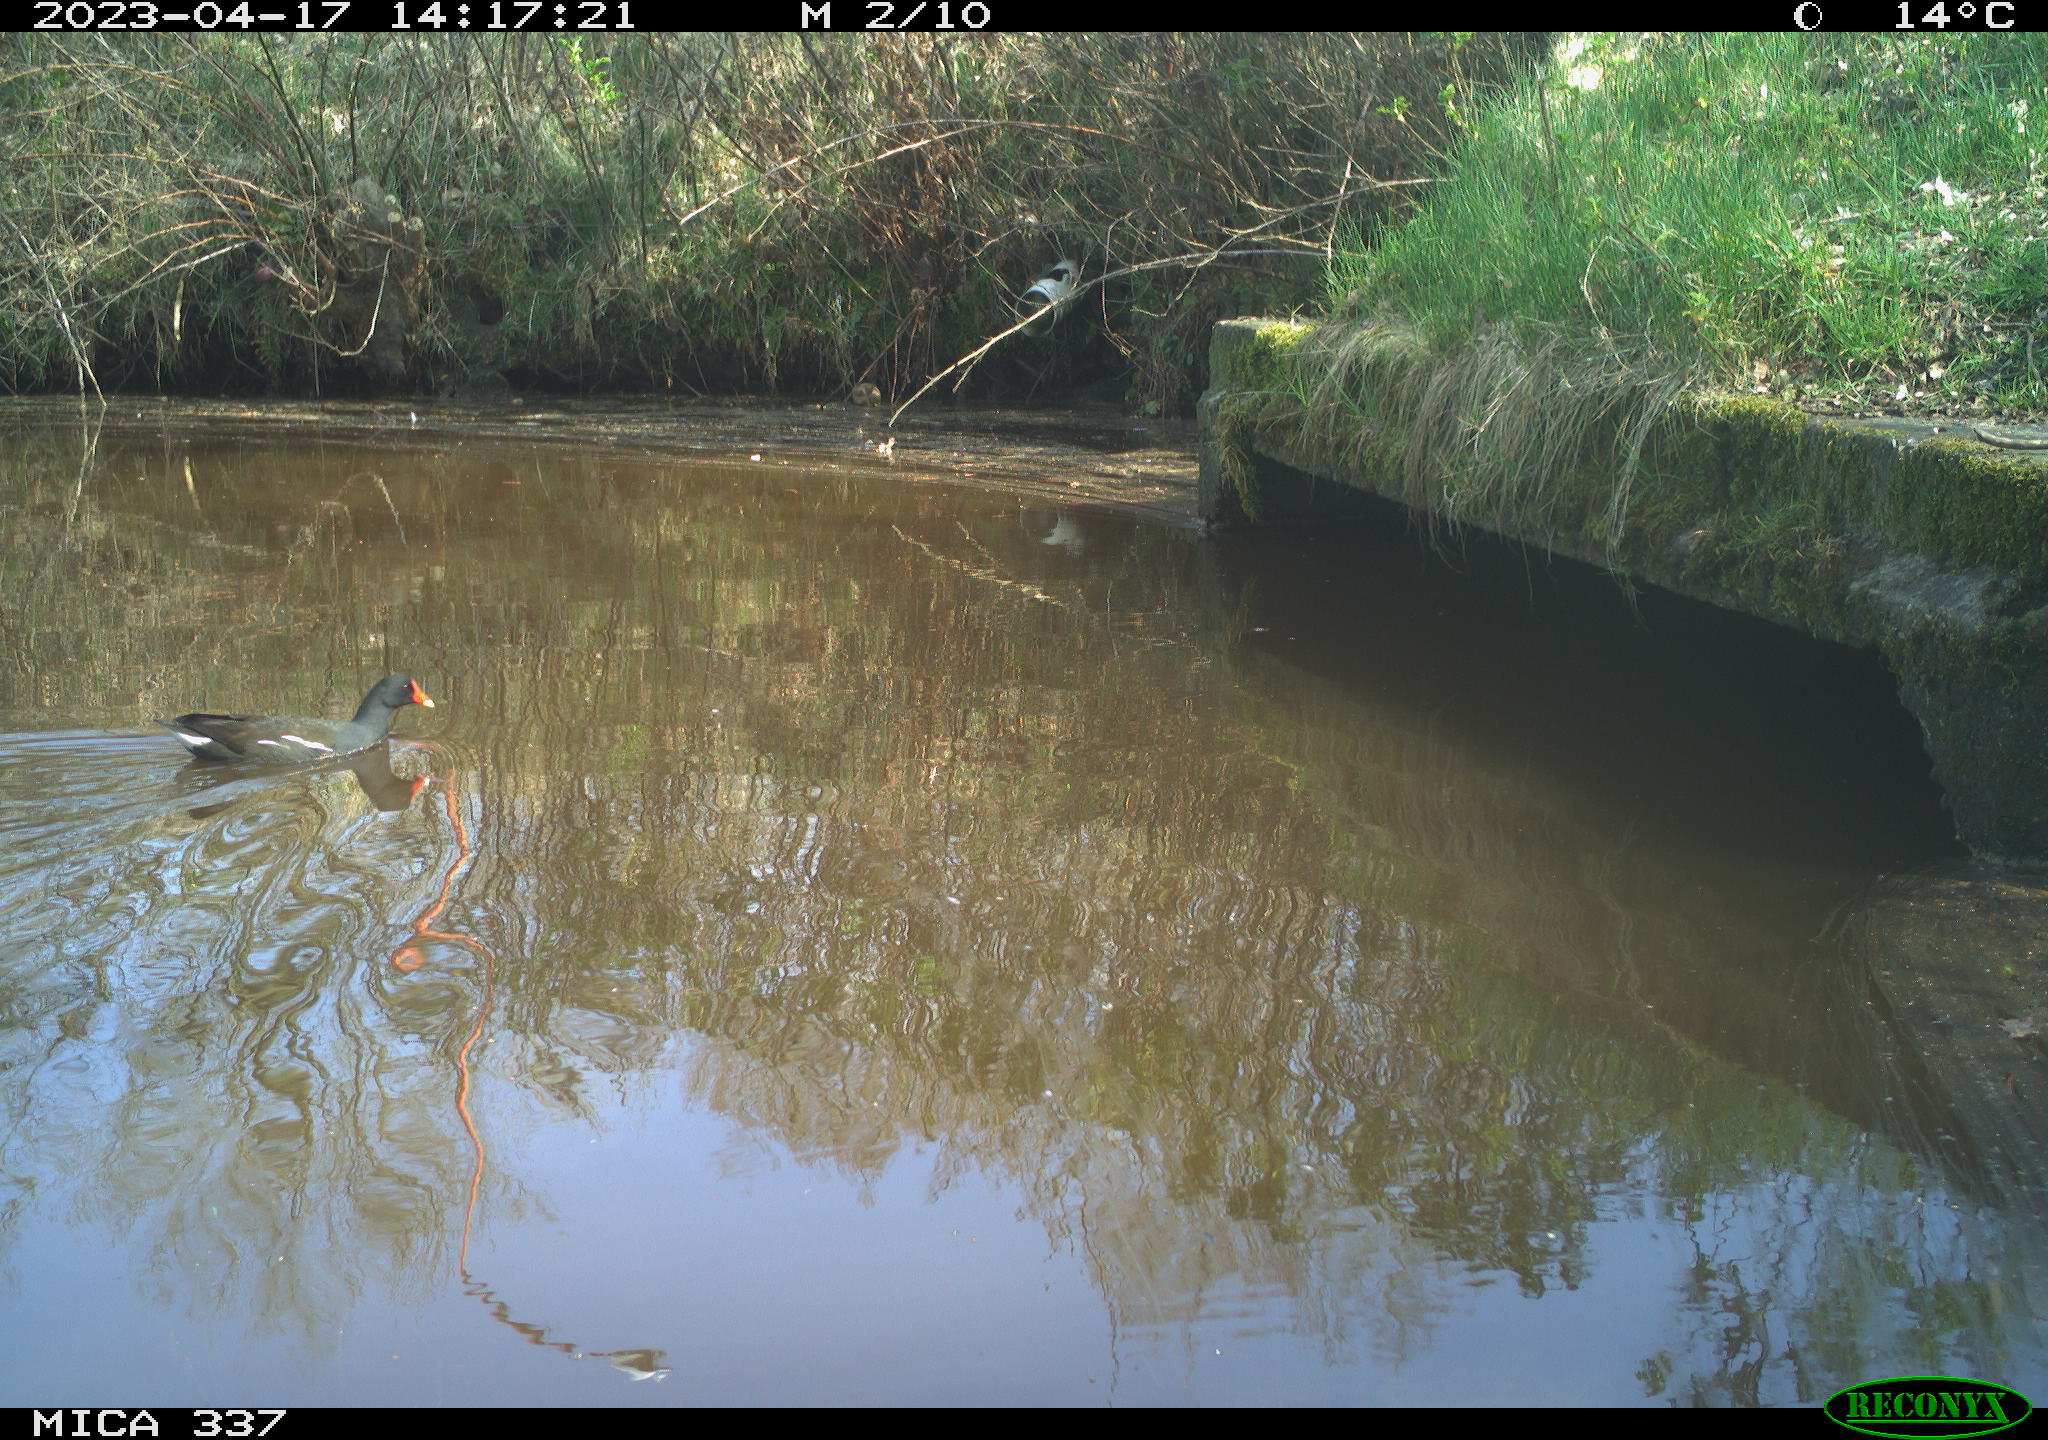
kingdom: Animalia
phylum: Chordata
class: Aves
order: Gruiformes
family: Rallidae
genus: Gallinula
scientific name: Gallinula chloropus
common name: Common moorhen
